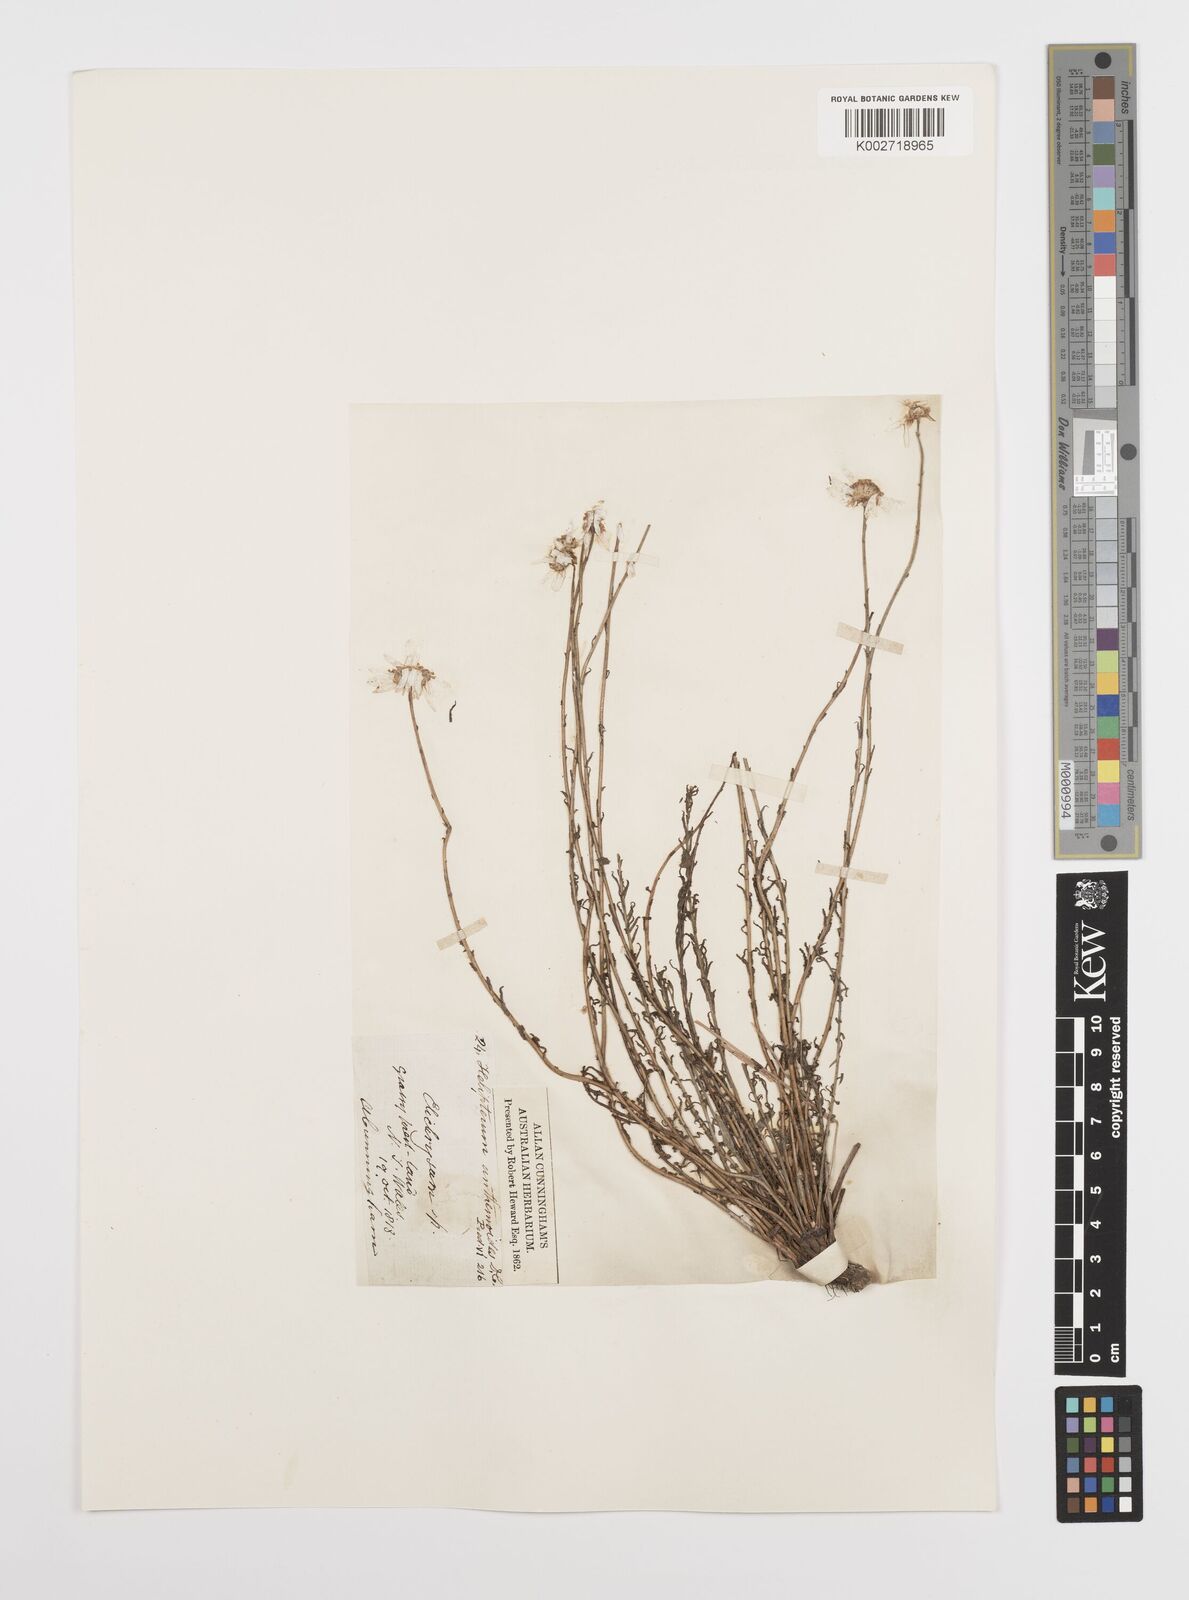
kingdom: Plantae
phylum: Tracheophyta
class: Magnoliopsida
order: Asterales
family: Asteraceae
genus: Rhodanthe
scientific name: Rhodanthe anthemoides
